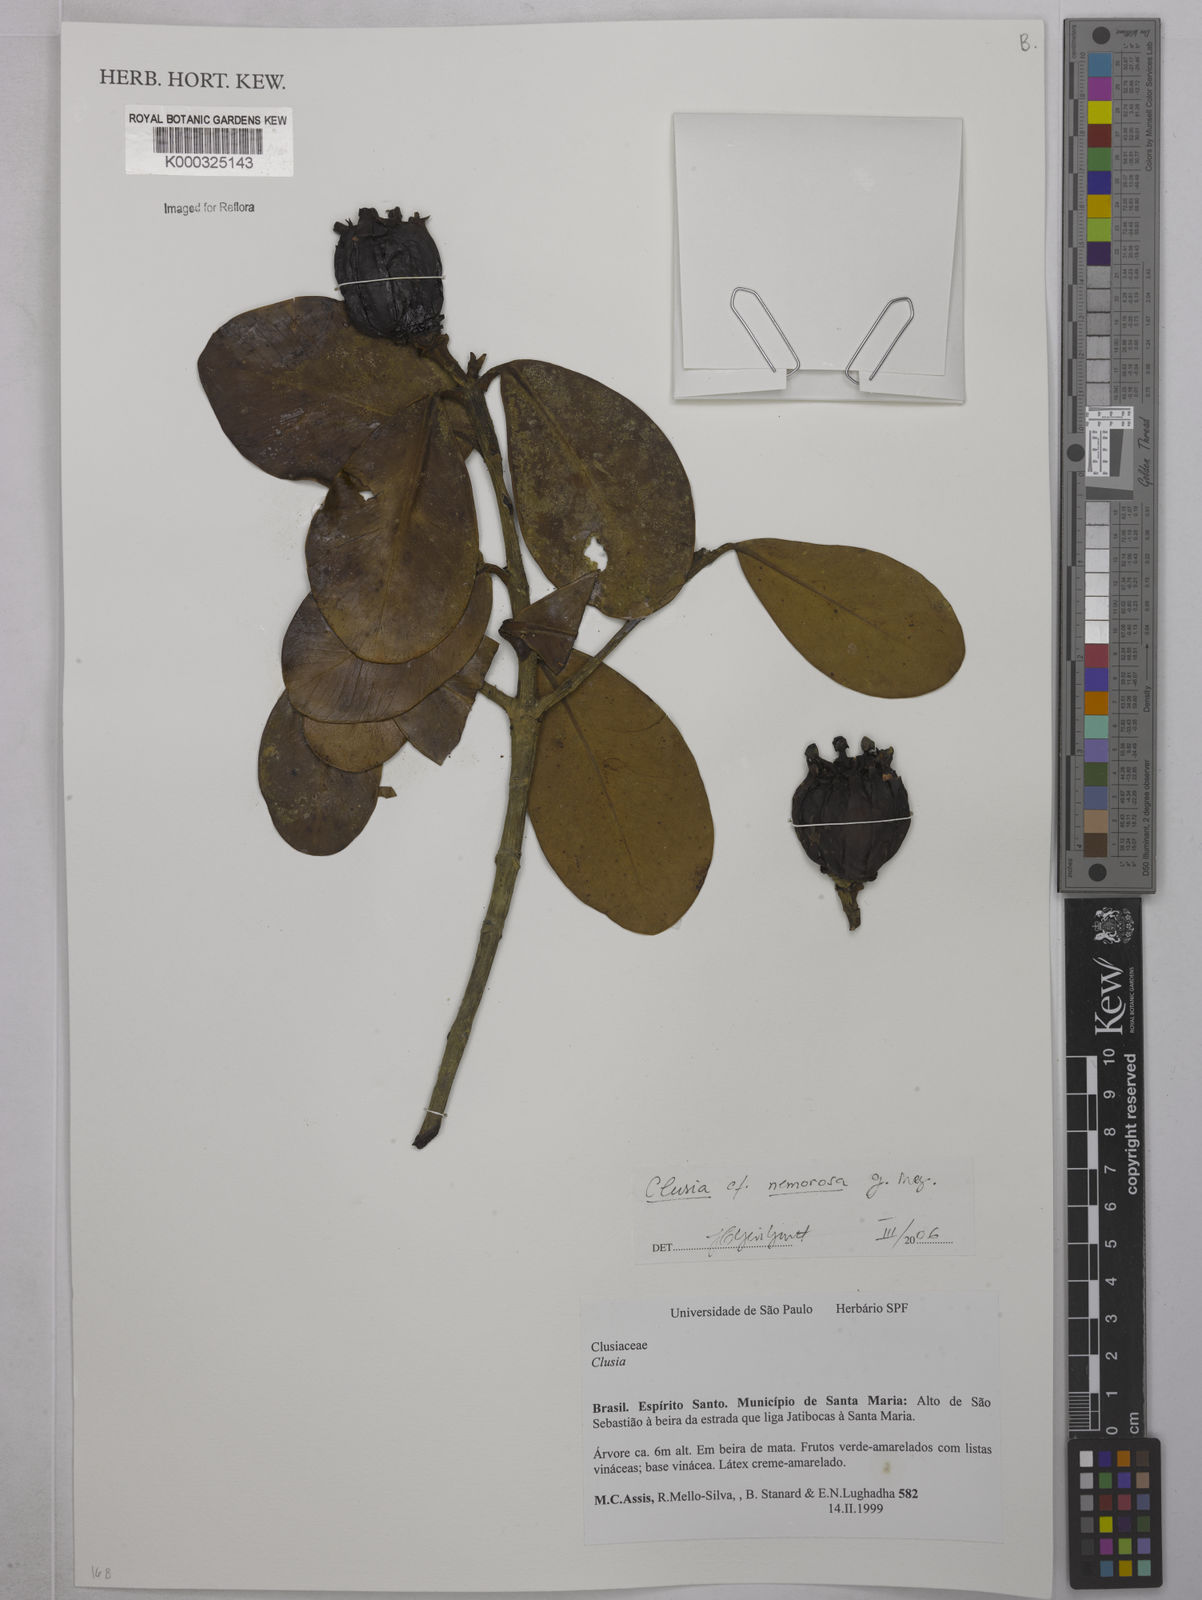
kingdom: Plantae
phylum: Tracheophyta
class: Magnoliopsida
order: Malpighiales
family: Clusiaceae
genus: Clusia
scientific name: Clusia nemorosa
